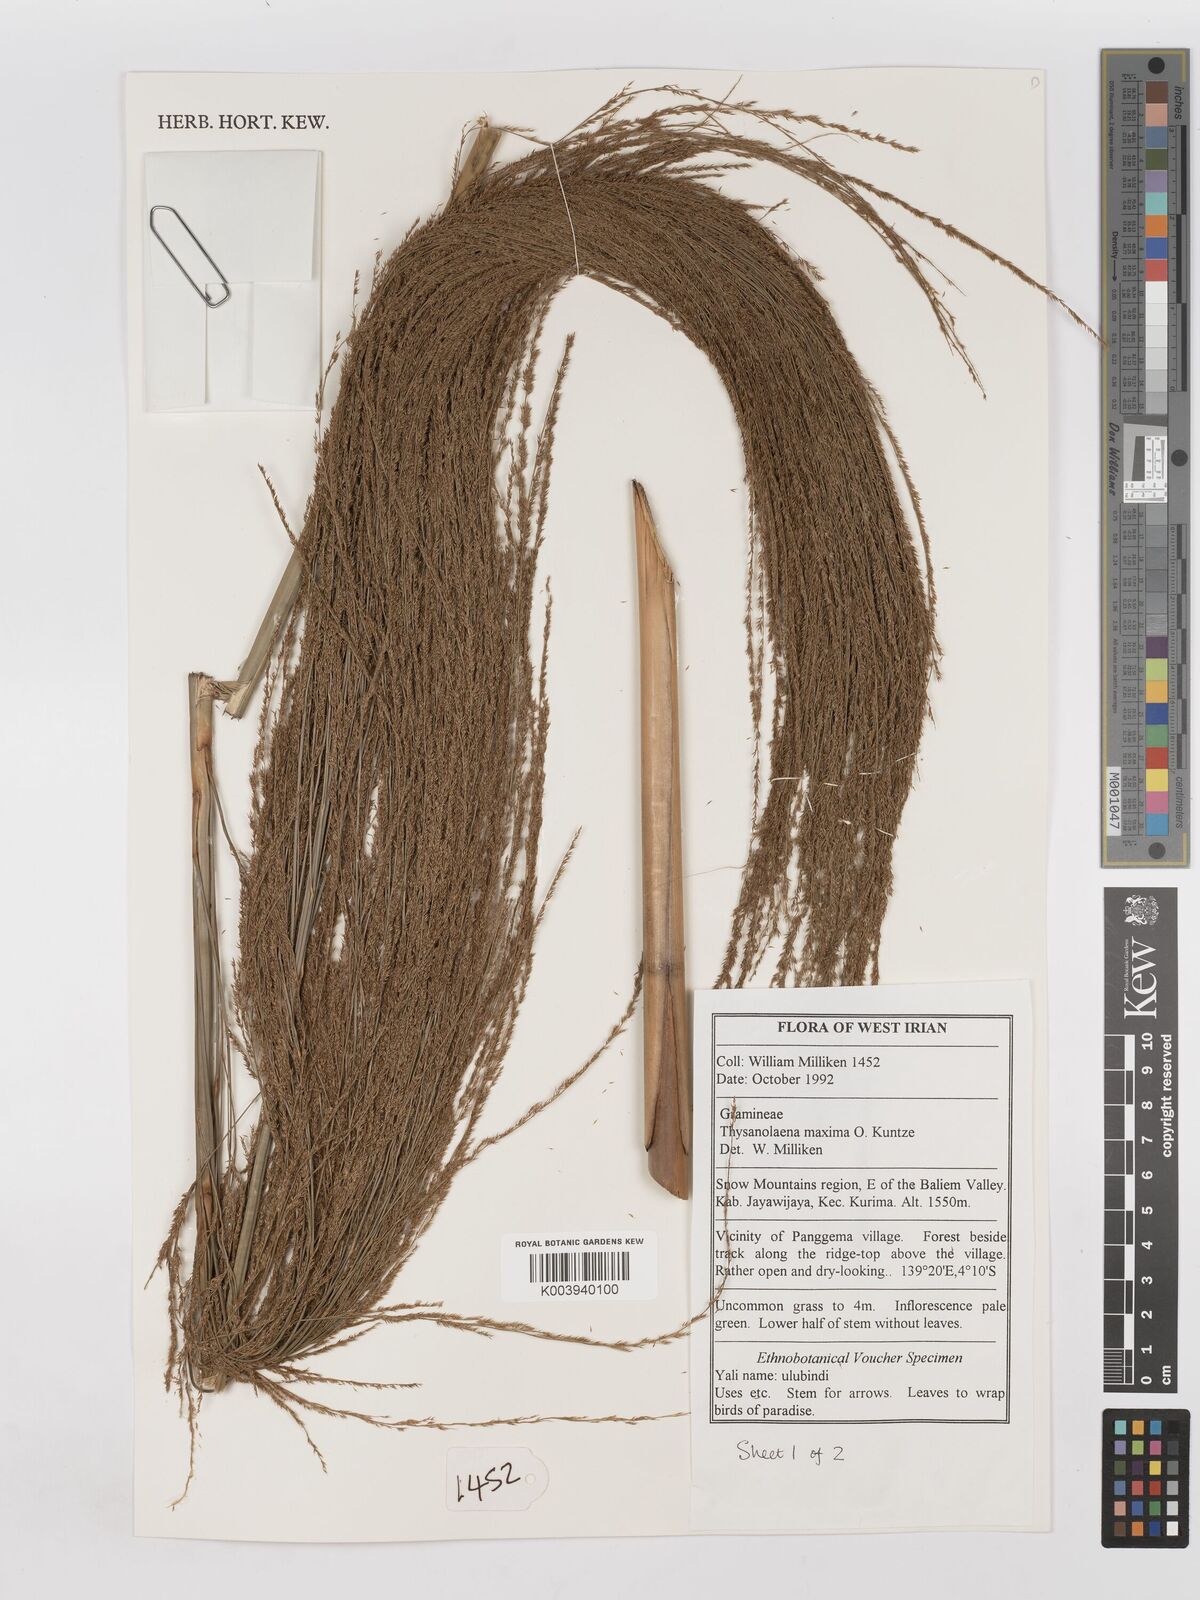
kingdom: Plantae
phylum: Tracheophyta
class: Liliopsida
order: Poales
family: Poaceae
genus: Thysanolaena
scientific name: Thysanolaena latifolia
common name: Tiger grass
